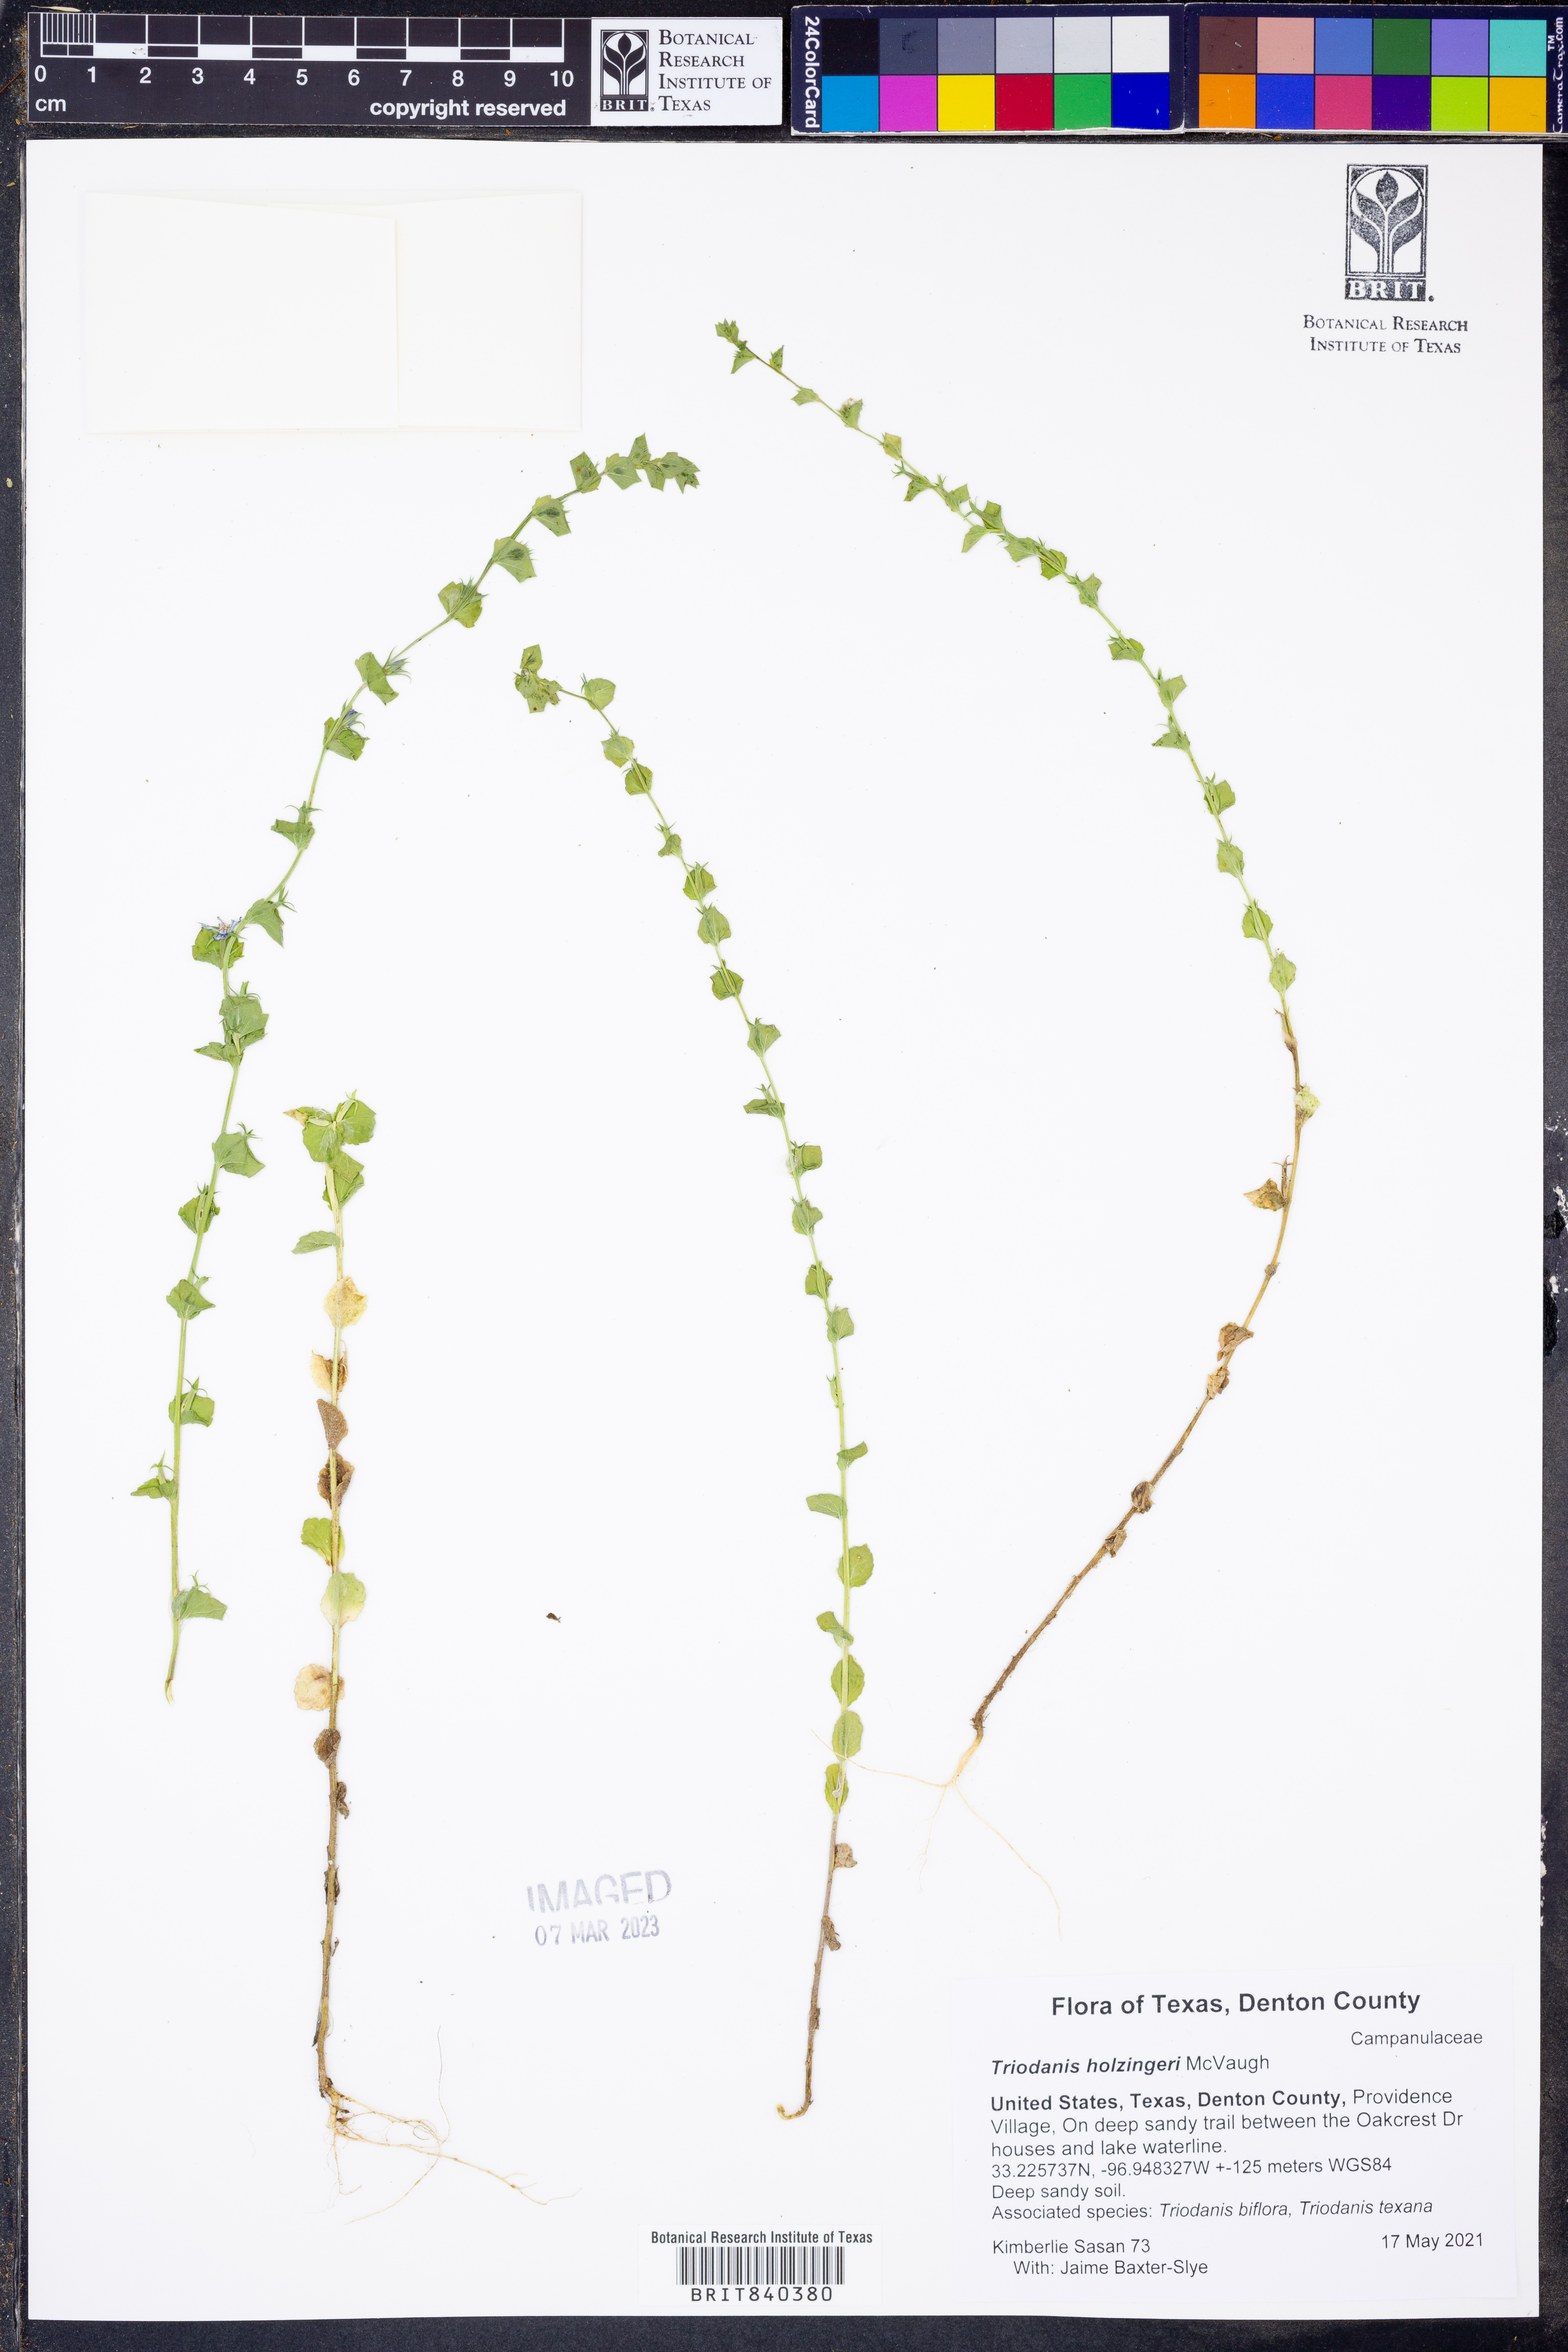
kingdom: Plantae
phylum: Tracheophyta
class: Magnoliopsida
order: Asterales
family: Campanulaceae
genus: Triodanis
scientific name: Triodanis holzingeri
